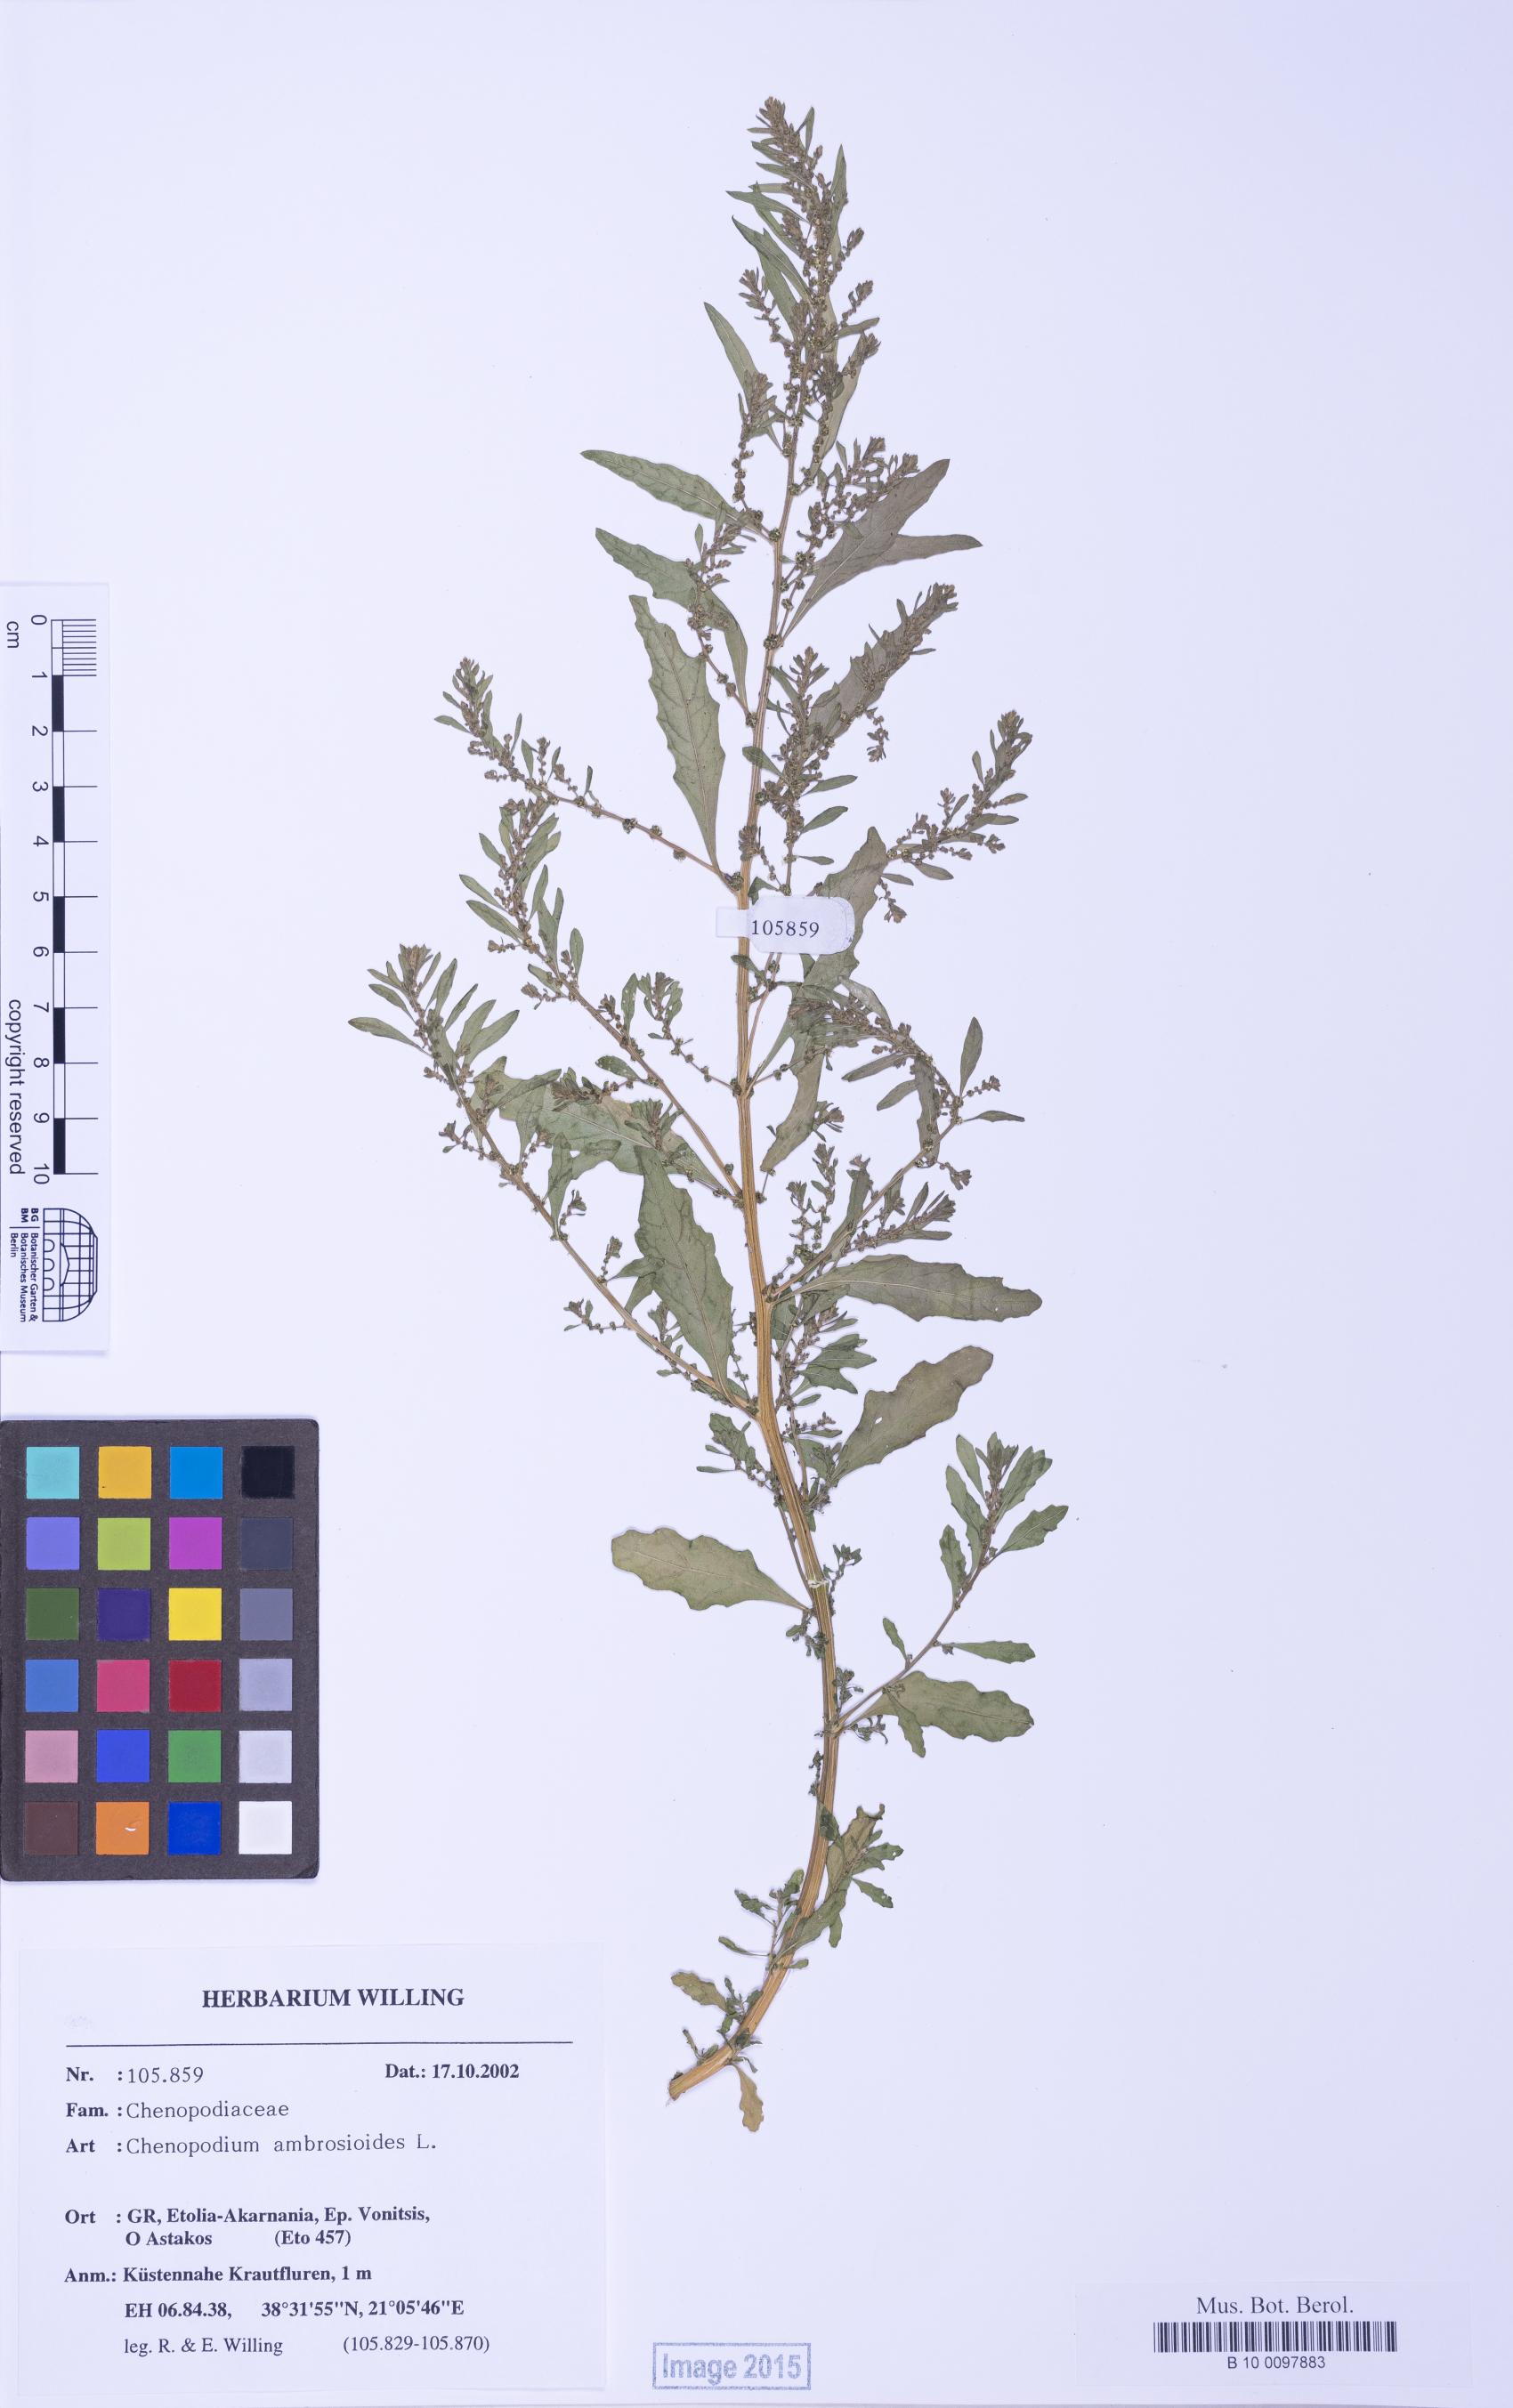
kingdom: Plantae
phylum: Tracheophyta
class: Magnoliopsida
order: Caryophyllales
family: Amaranthaceae
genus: Dysphania
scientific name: Dysphania ambrosioides
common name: Wormseed
